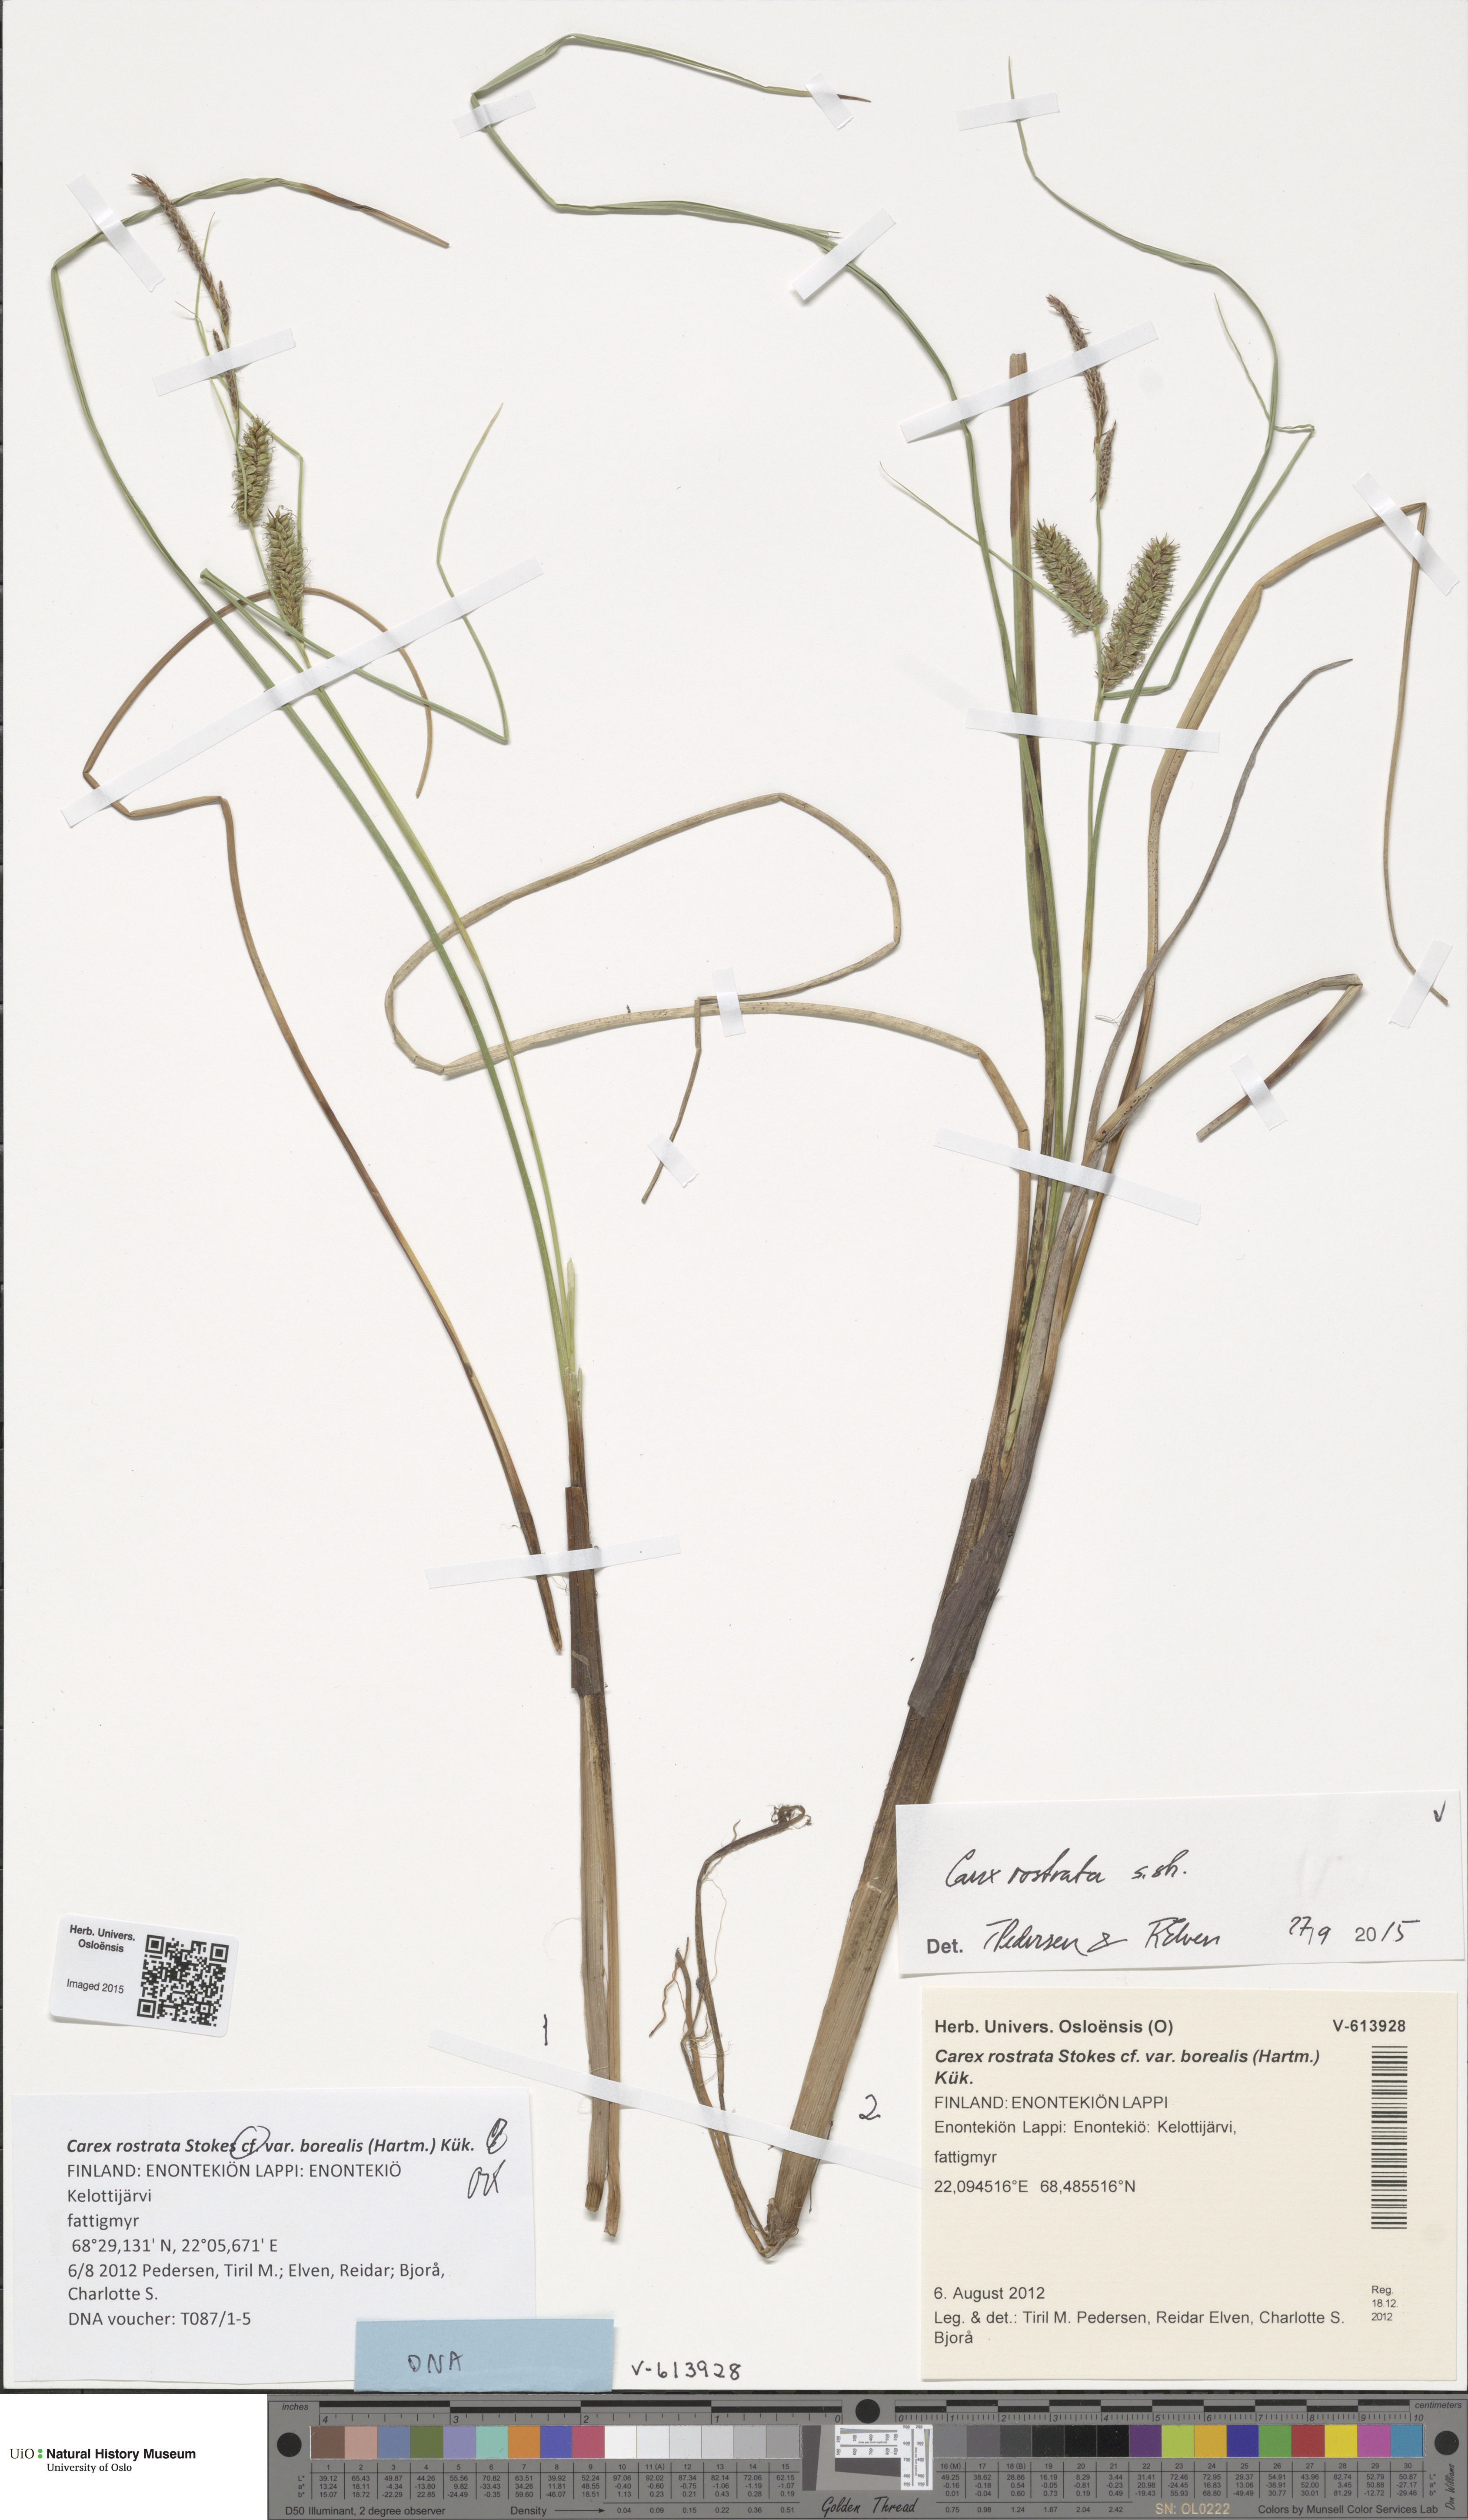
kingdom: Plantae
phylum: Tracheophyta
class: Liliopsida
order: Poales
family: Cyperaceae
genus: Carex
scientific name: Carex rostrata
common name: Bottle sedge
